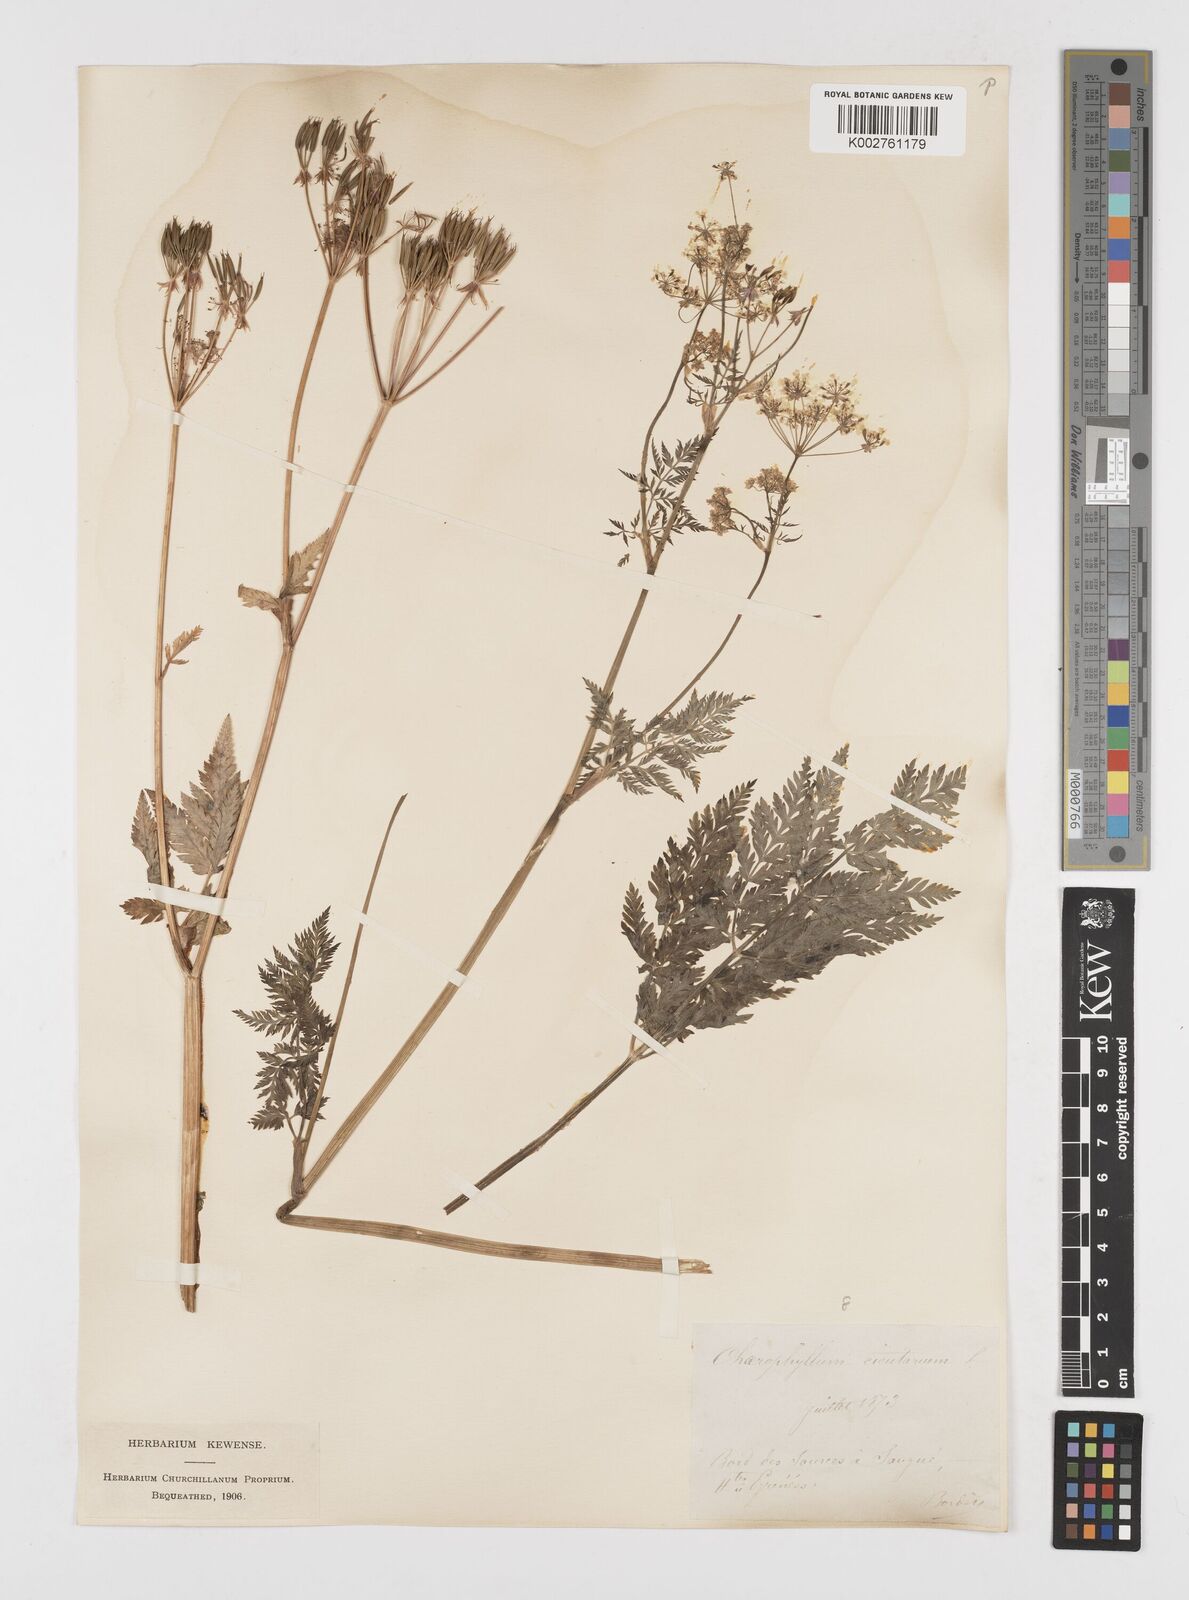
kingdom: Plantae
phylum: Tracheophyta
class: Magnoliopsida
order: Apiales
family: Apiaceae
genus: Chaerophyllum
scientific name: Chaerophyllum hirsutum
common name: Hairy chervil
